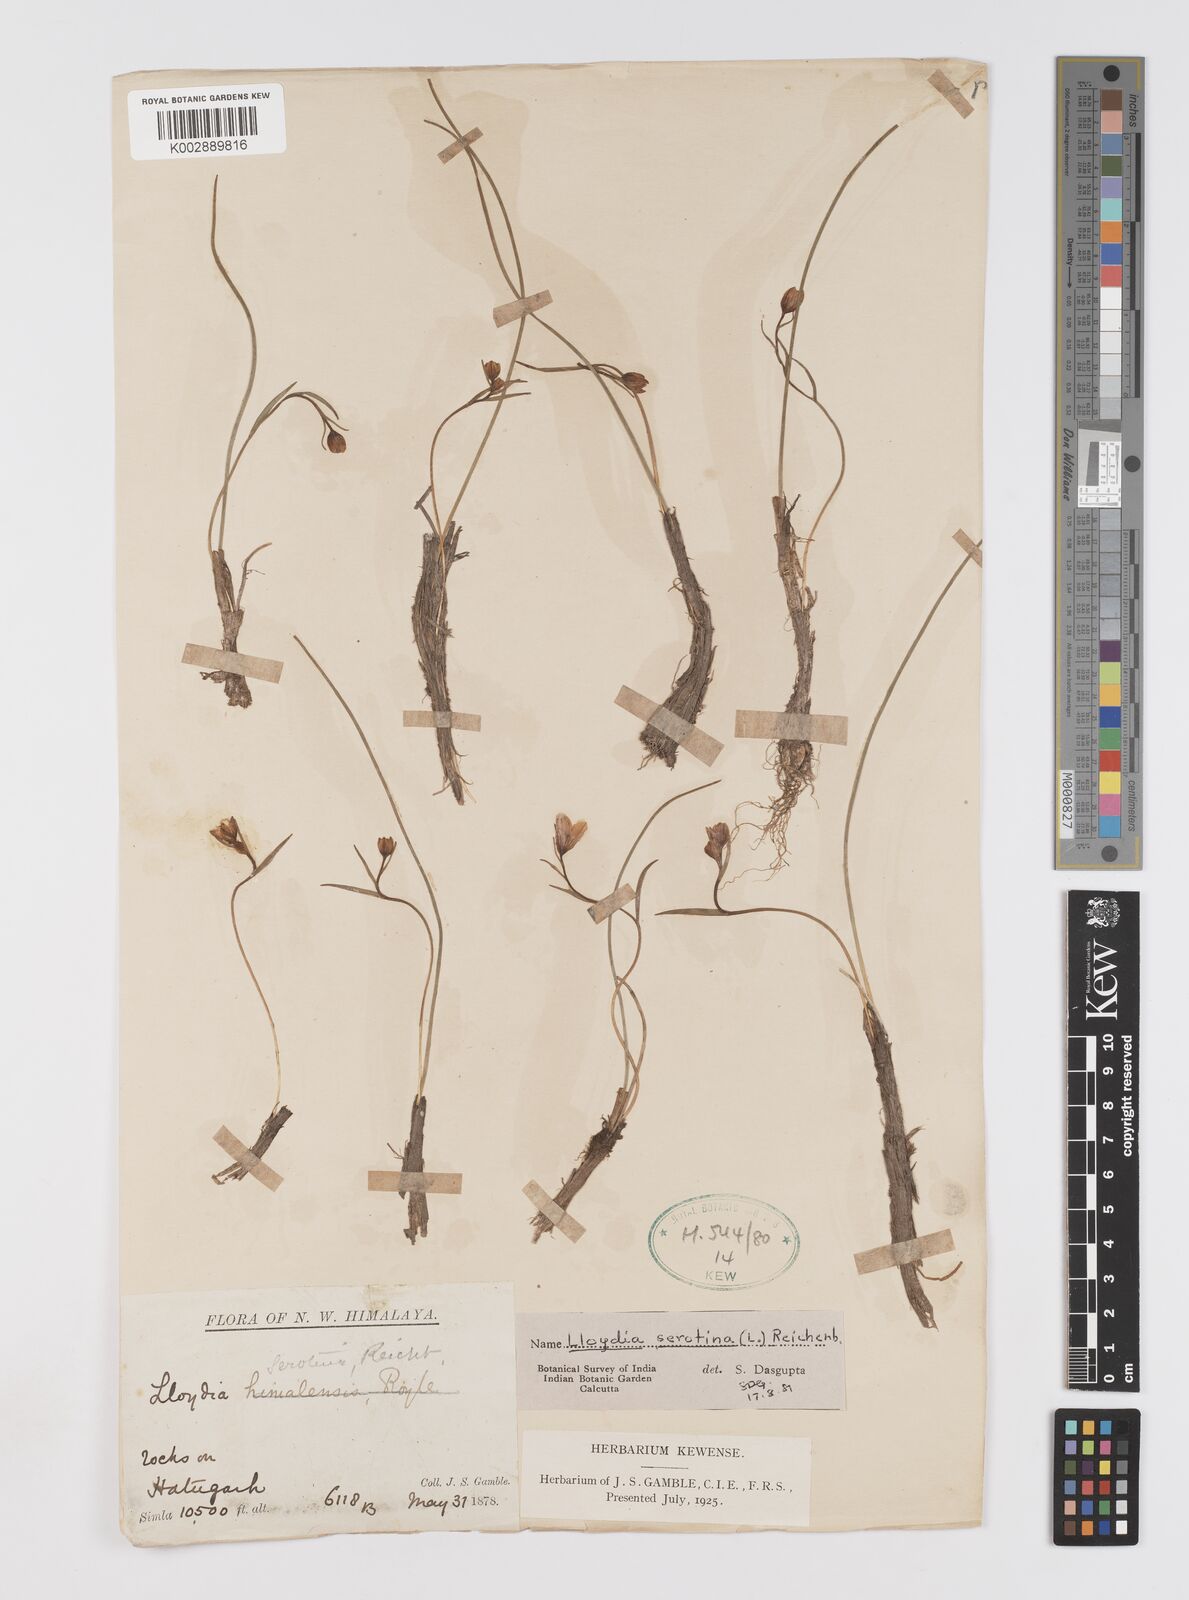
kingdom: Plantae
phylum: Tracheophyta
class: Liliopsida
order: Liliales
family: Liliaceae
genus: Gagea
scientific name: Gagea serotina
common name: Snowdon lily
